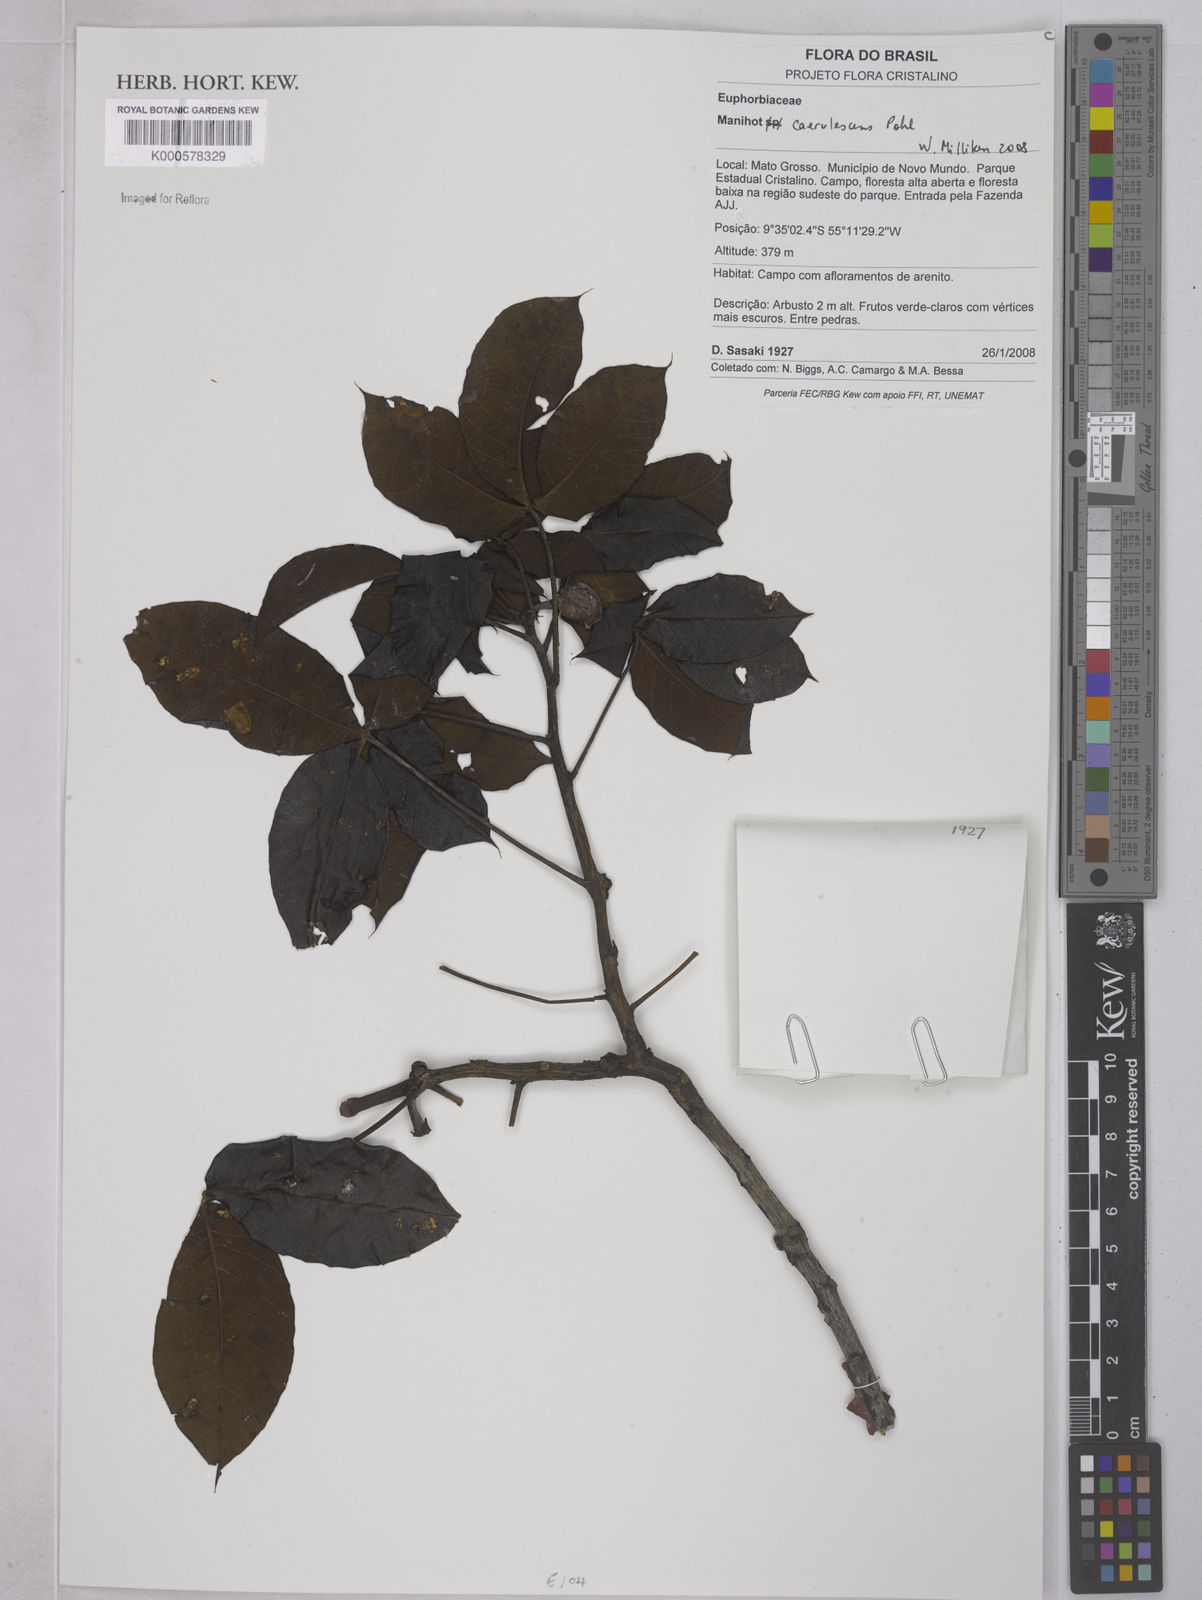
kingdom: Plantae
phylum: Tracheophyta
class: Magnoliopsida
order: Malpighiales
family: Euphorbiaceae
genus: Manihot
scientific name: Manihot caerulescens
